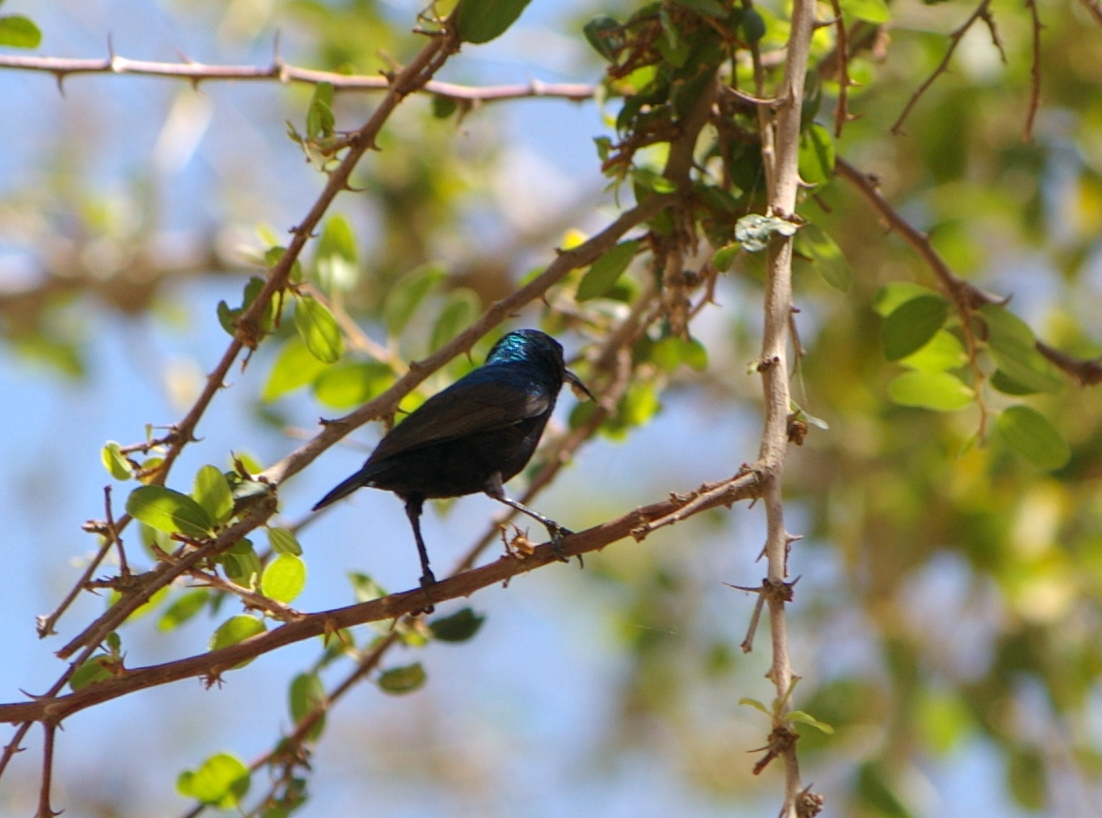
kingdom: Animalia
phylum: Chordata
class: Aves
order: Passeriformes
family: Nectariniidae
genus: Cinnyris
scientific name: Cinnyris osea
